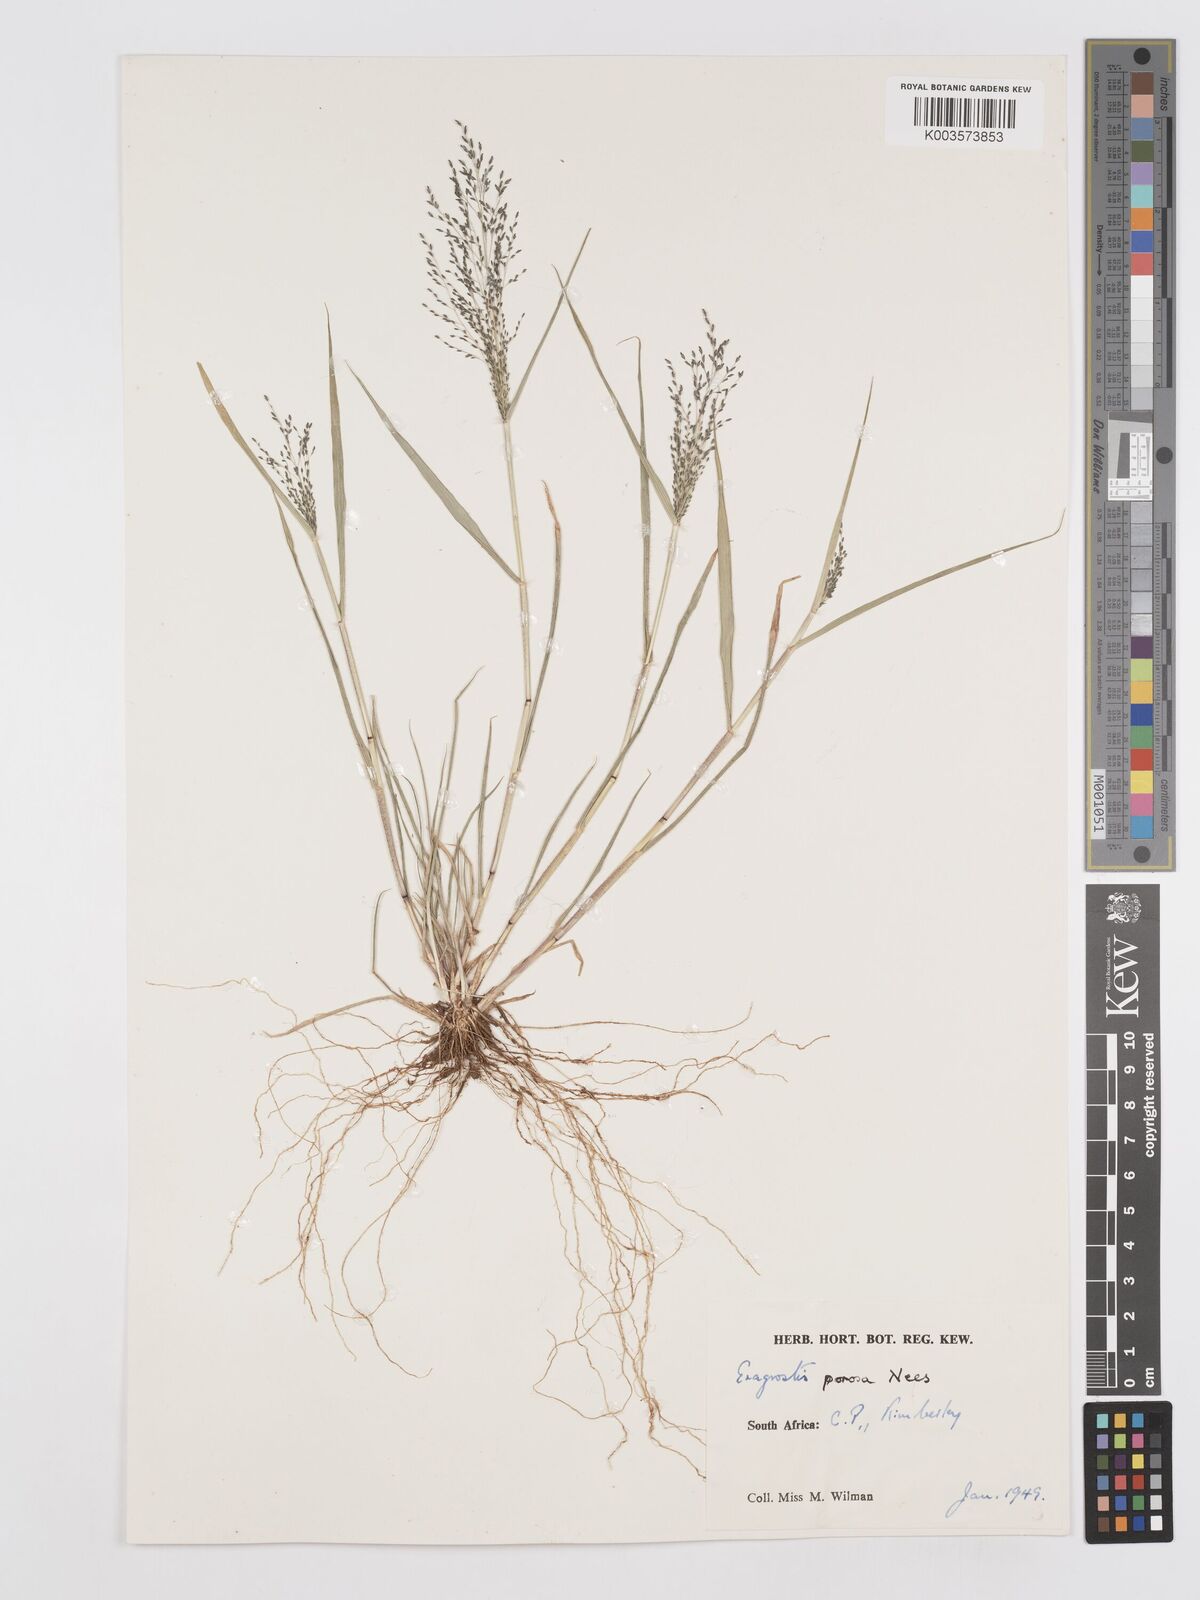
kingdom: Plantae
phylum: Tracheophyta
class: Liliopsida
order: Poales
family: Poaceae
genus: Eragrostis
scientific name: Eragrostis porosa
